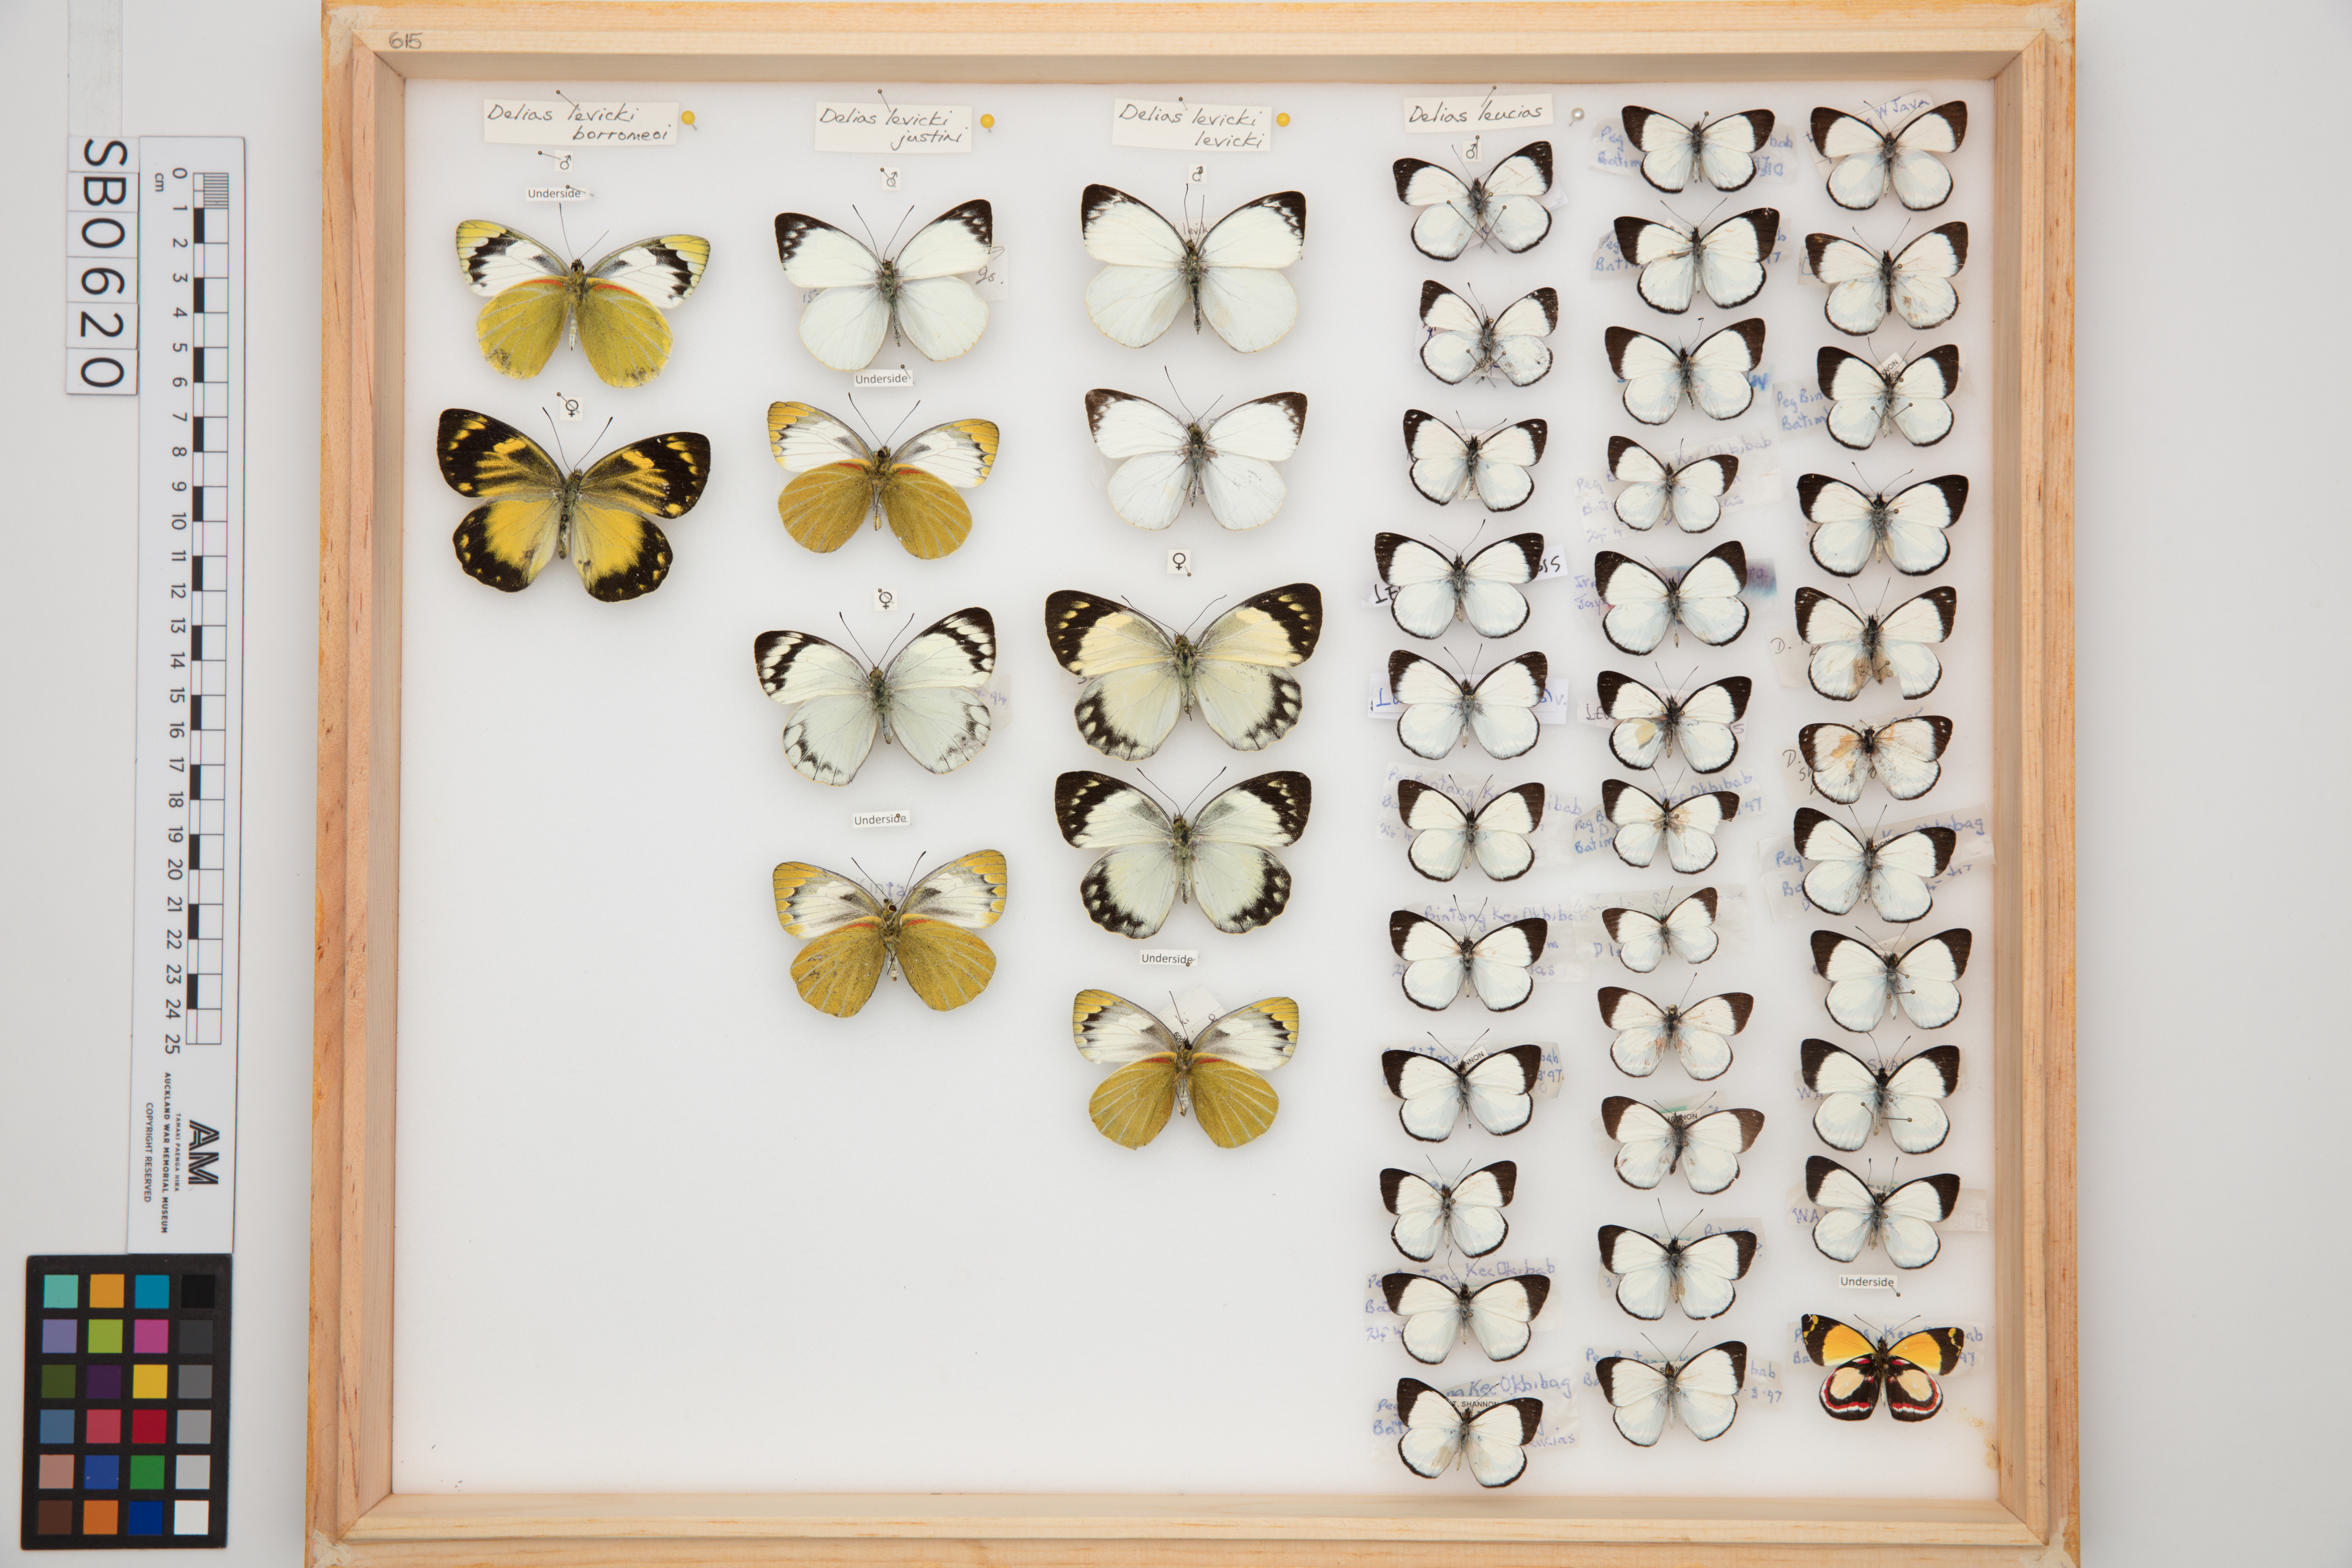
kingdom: Animalia
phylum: Arthropoda
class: Insecta
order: Lepidoptera
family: Pieridae
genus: Delias
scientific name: Delias leucias
